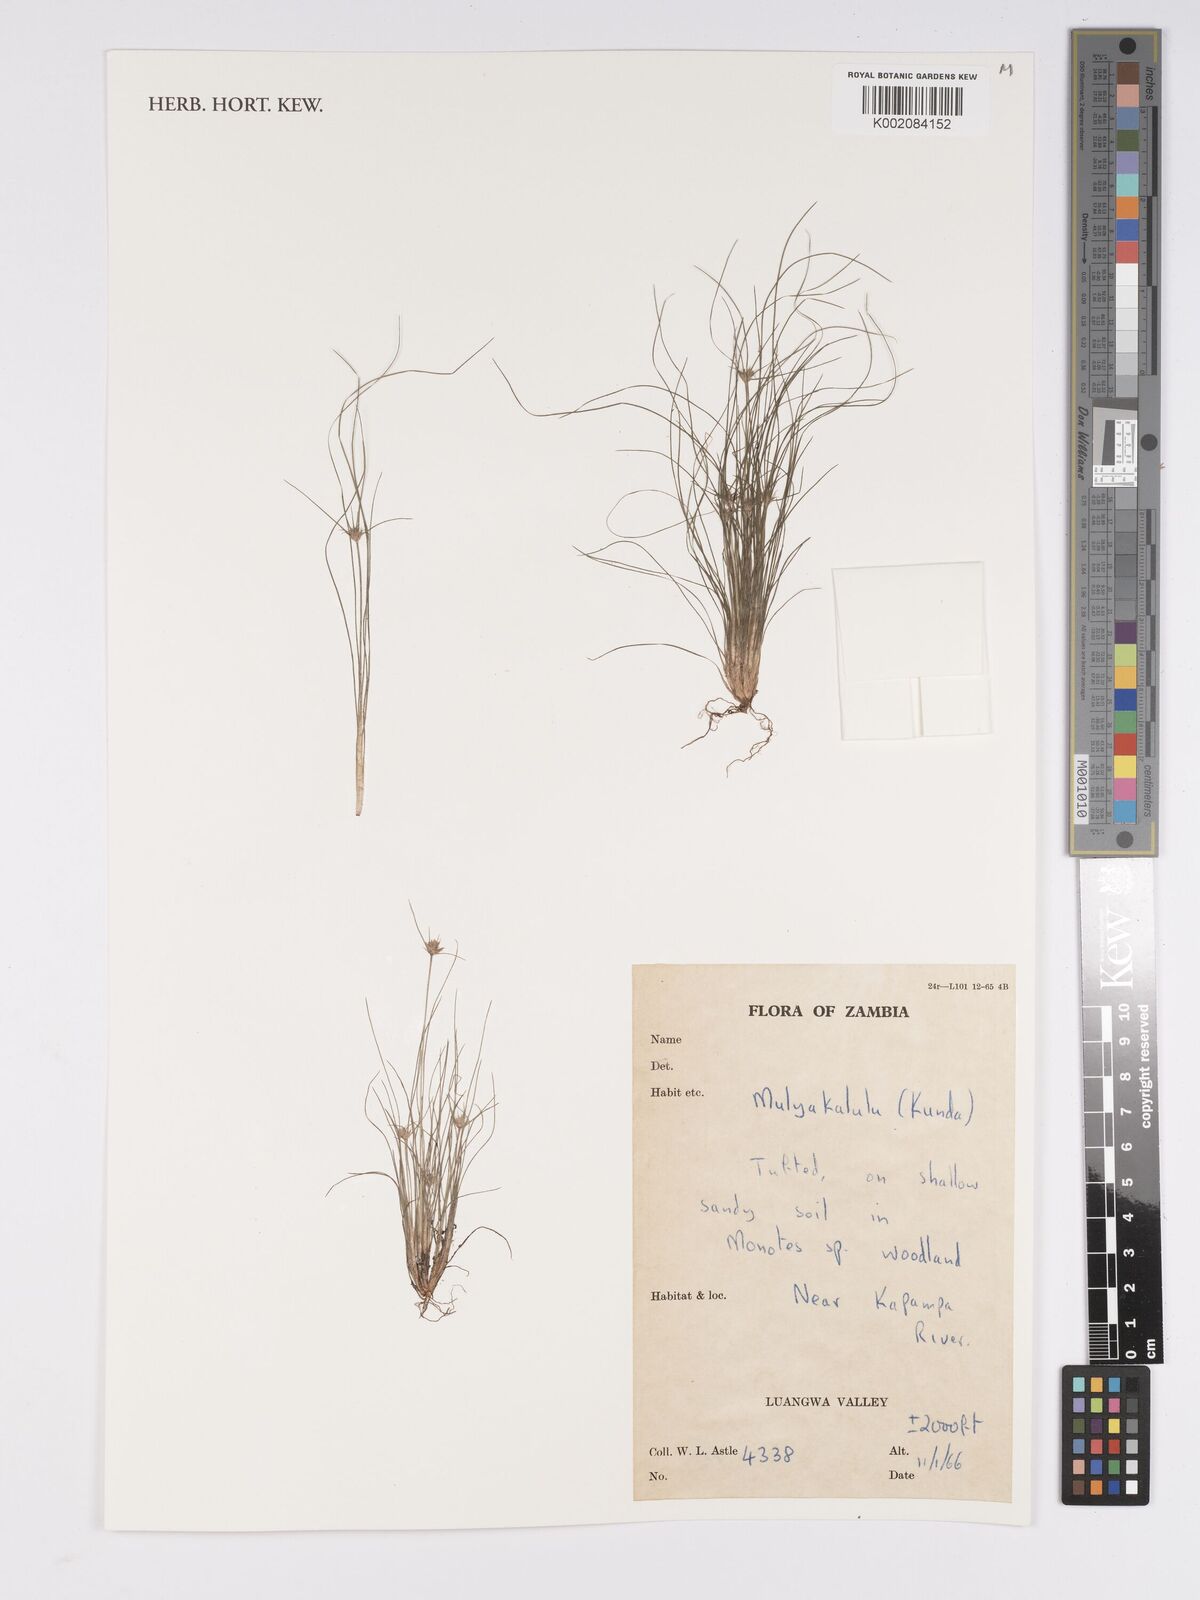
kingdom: Plantae
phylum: Tracheophyta
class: Liliopsida
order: Poales
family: Cyperaceae
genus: Bulbostylis
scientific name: Bulbostylis
